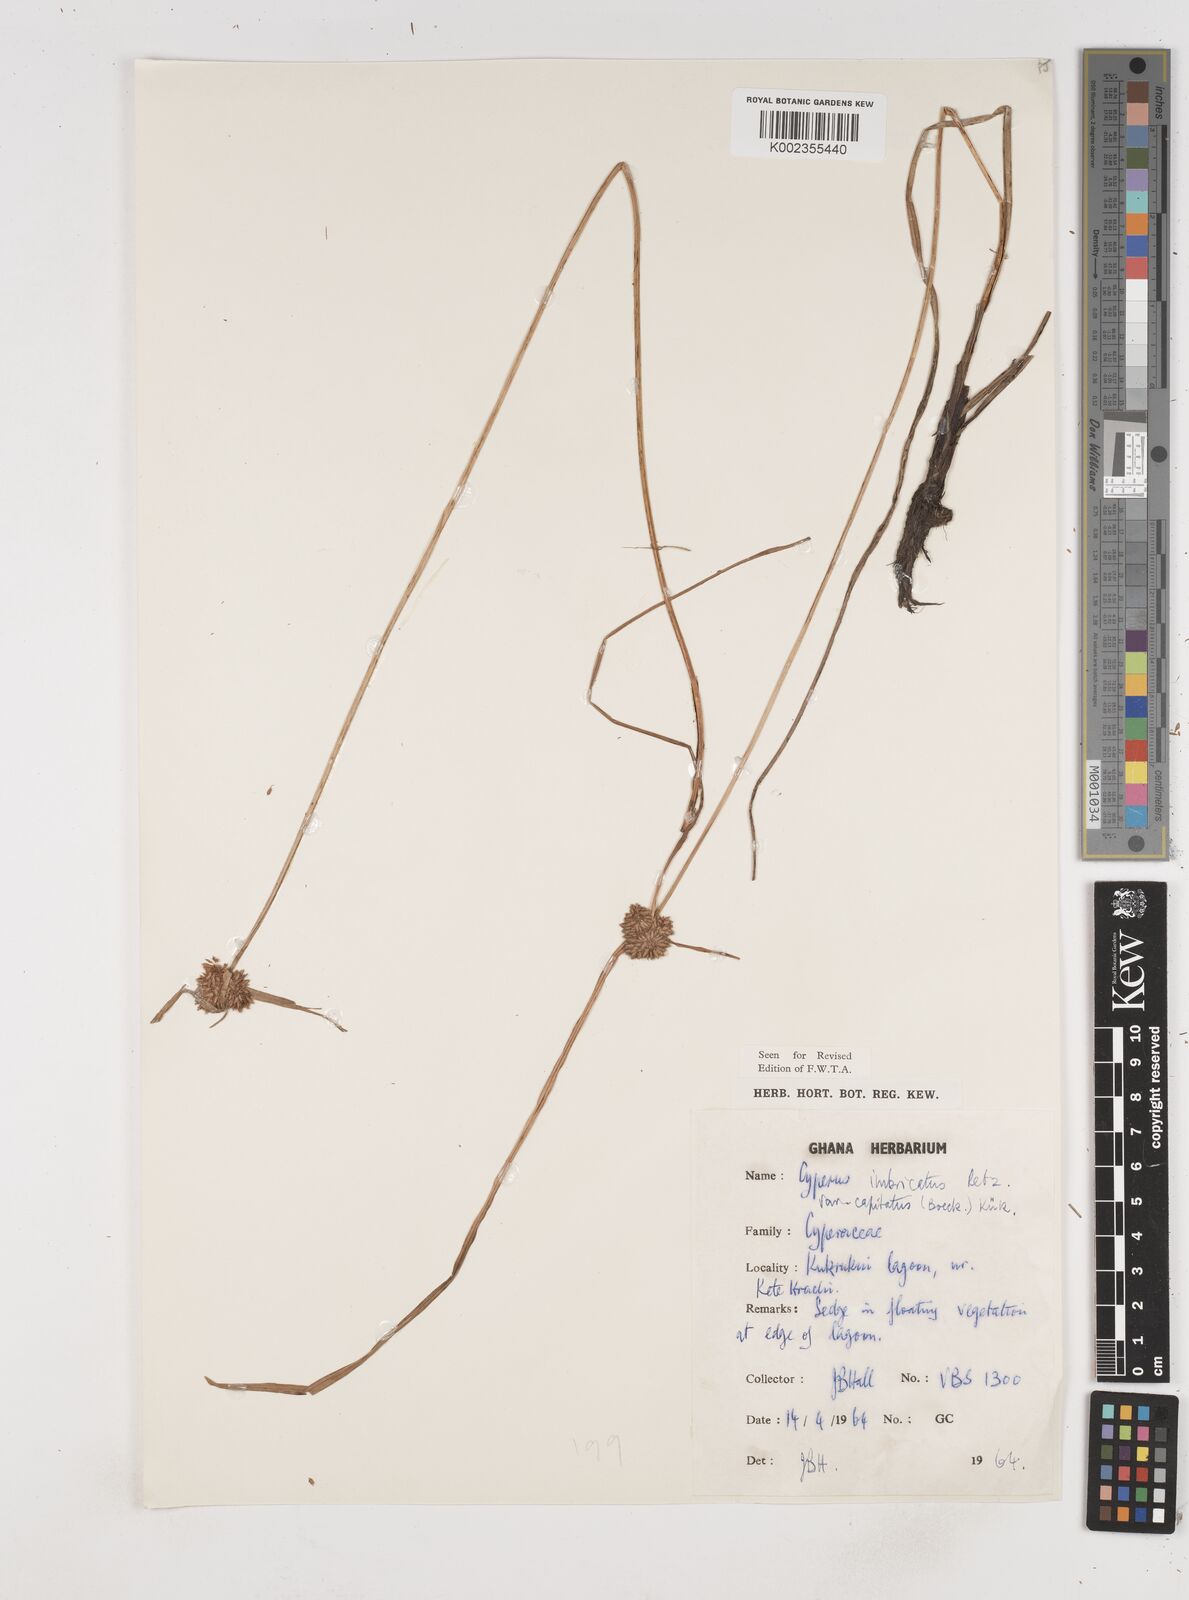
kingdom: Plantae
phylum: Tracheophyta
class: Liliopsida
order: Poales
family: Cyperaceae
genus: Cyperus
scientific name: Cyperus imbricatus
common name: Shingle flatsedge
